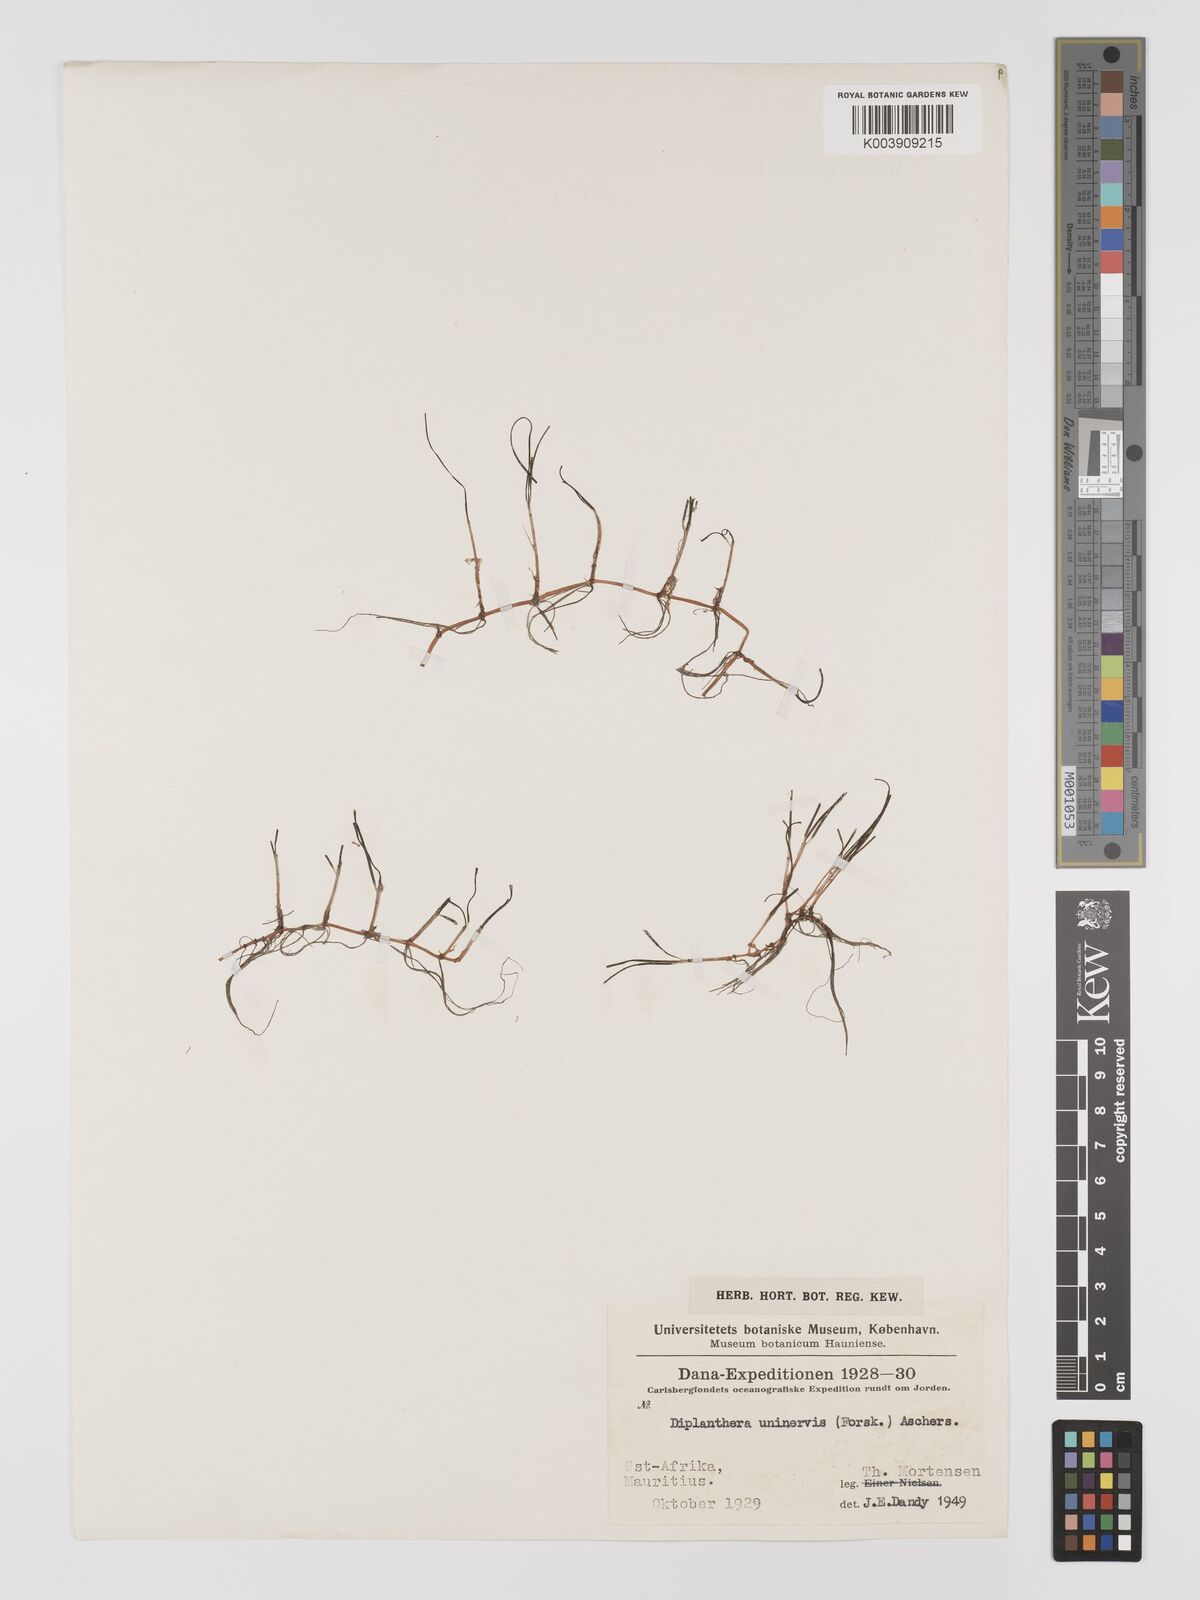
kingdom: Plantae
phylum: Tracheophyta
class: Liliopsida
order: Alismatales
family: Cymodoceaceae
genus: Halodule
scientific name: Halodule uninervis
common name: Narrowleaf seagrass
